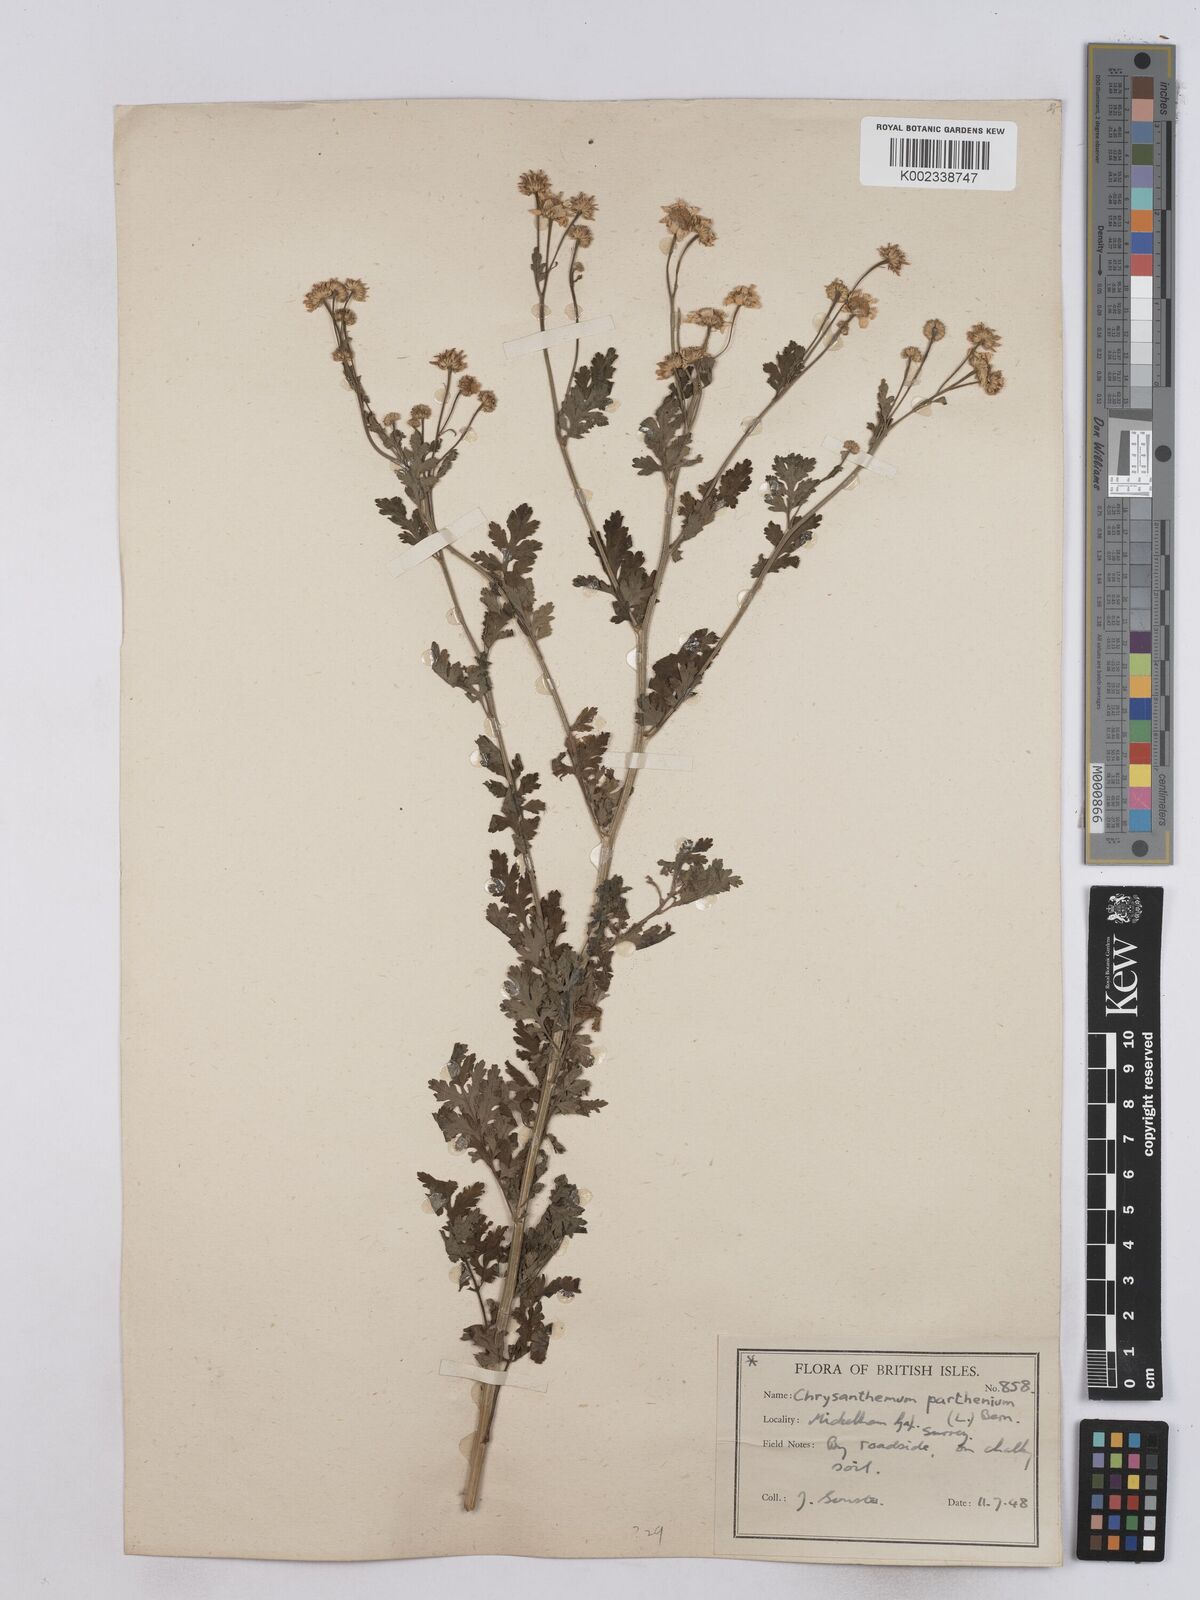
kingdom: Plantae
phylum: Tracheophyta
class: Magnoliopsida
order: Asterales
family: Asteraceae
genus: Tanacetum
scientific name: Tanacetum parthenium
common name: Feverfew
